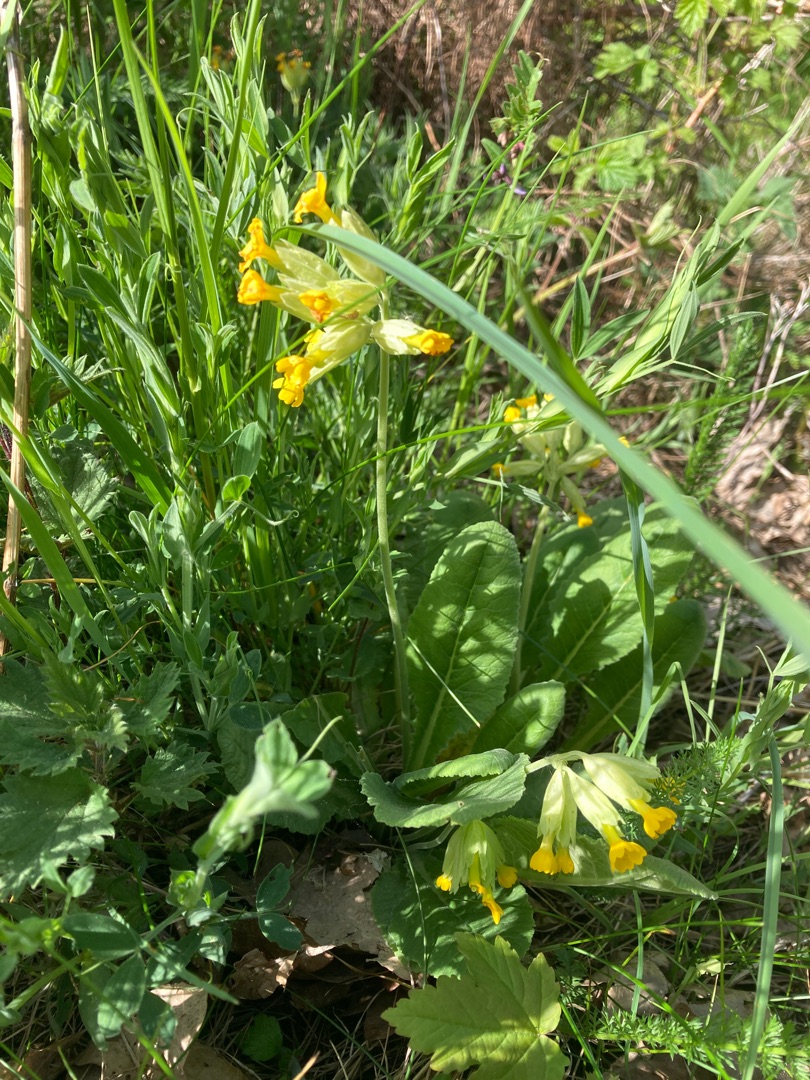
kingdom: Plantae
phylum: Tracheophyta
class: Magnoliopsida
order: Ericales
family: Primulaceae
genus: Primula
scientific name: Primula veris
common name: Hulkravet kodriver
